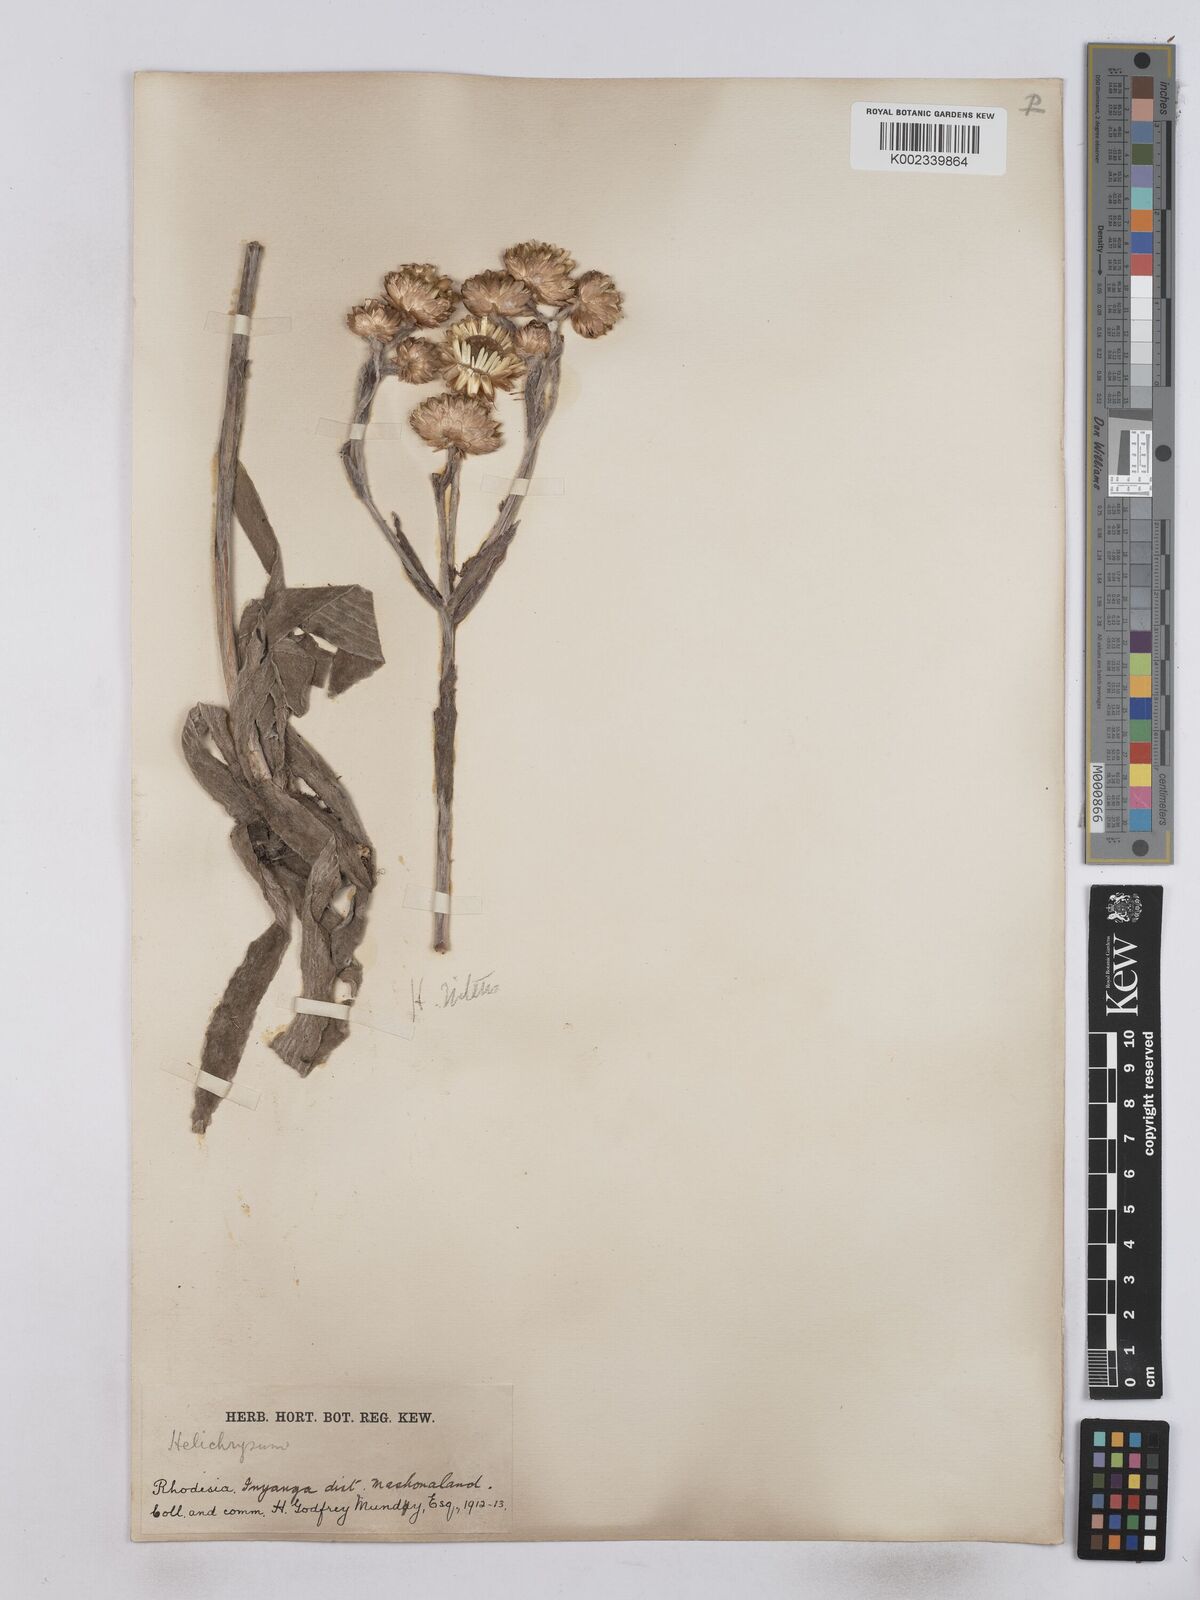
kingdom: Plantae
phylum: Tracheophyta
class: Magnoliopsida
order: Asterales
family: Asteraceae
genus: Helichrysum
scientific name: Helichrysum nitens
